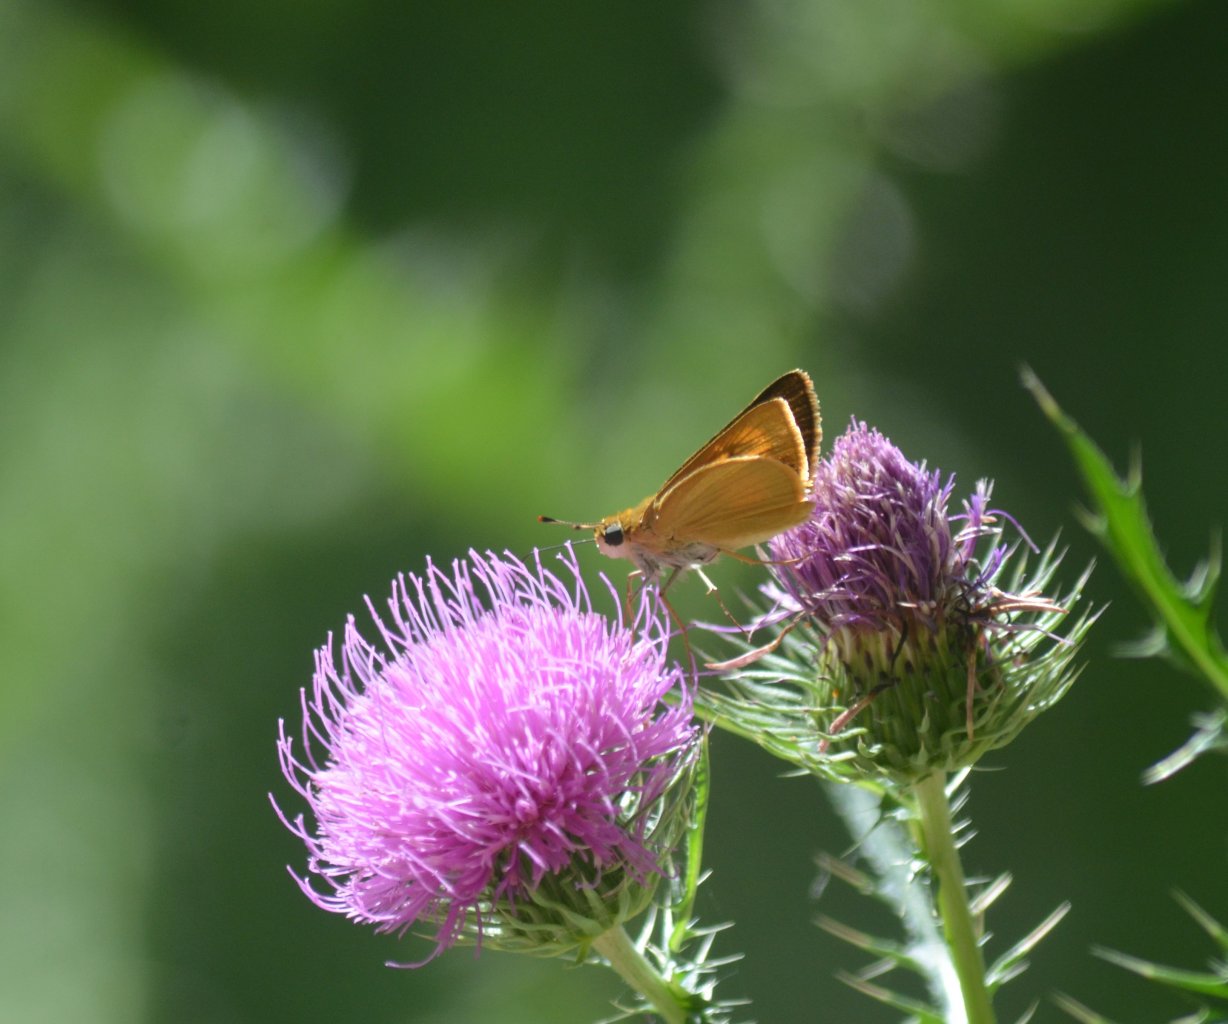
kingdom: Animalia
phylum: Arthropoda
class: Insecta
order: Lepidoptera
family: Hesperiidae
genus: Atrytone
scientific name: Atrytone delaware
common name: Delaware Skipper
